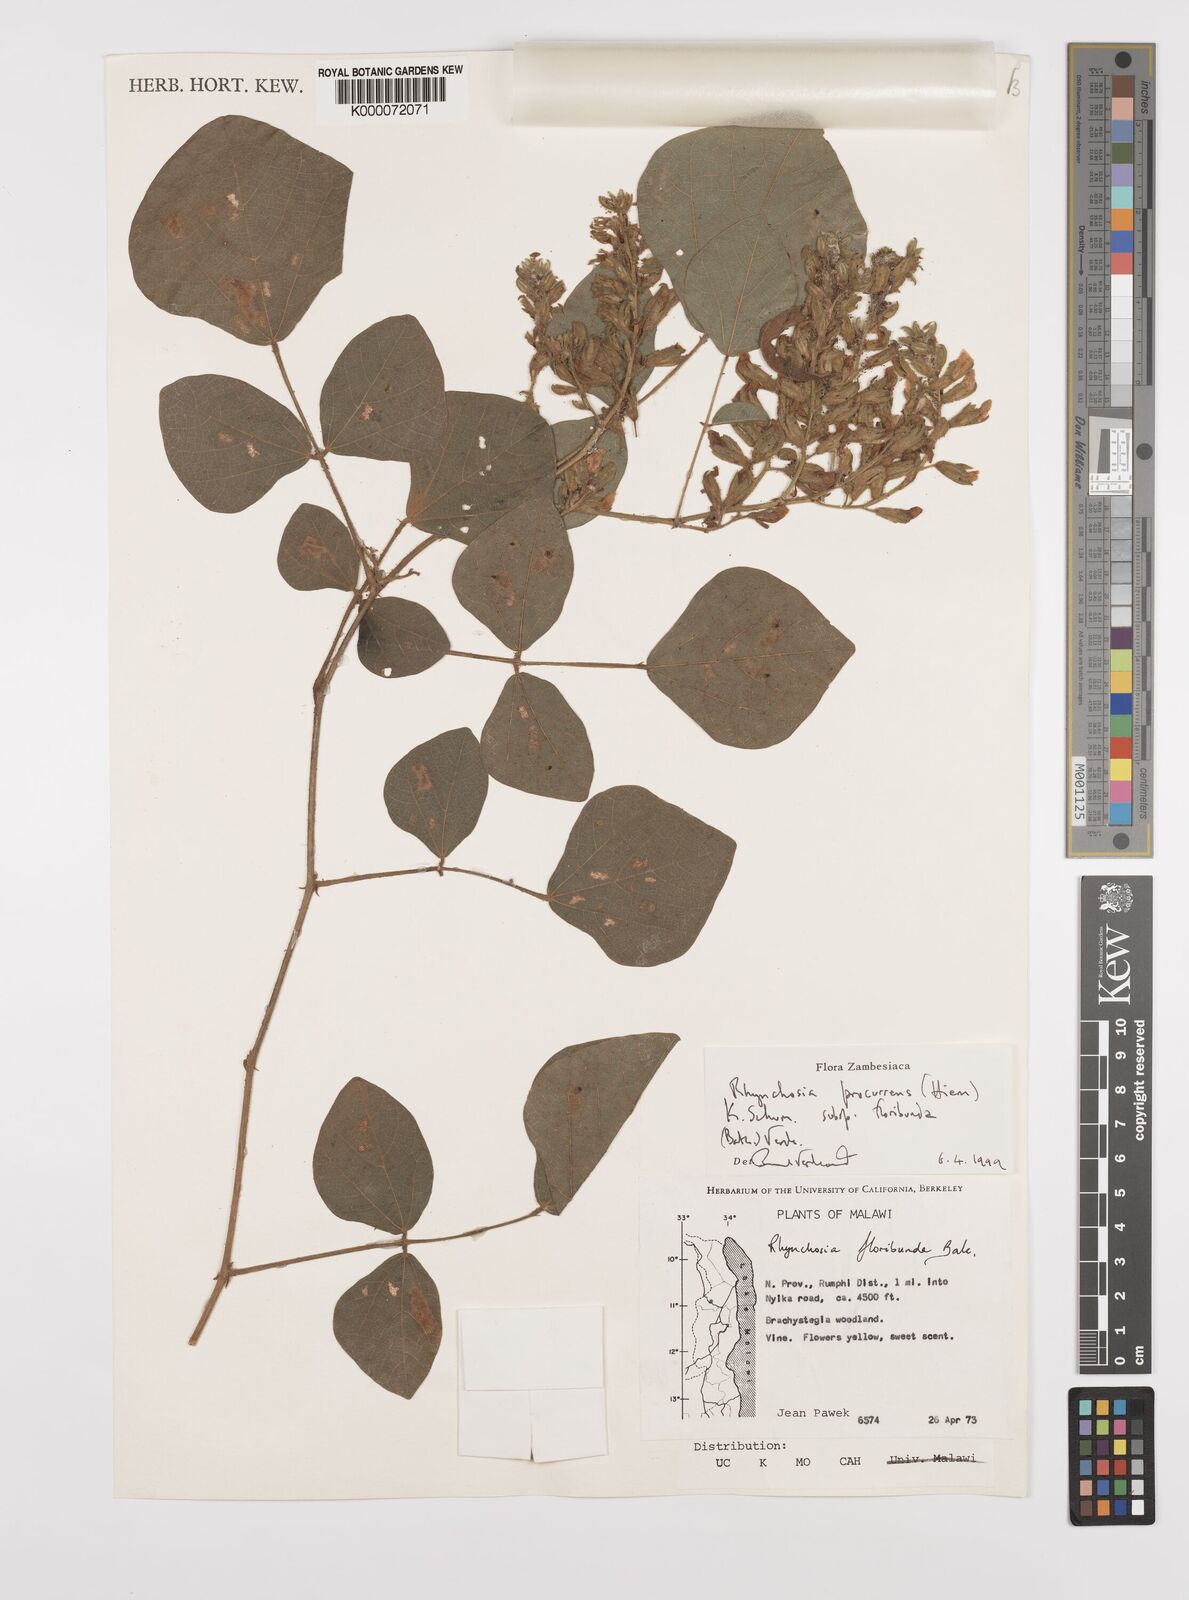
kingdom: Plantae
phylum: Tracheophyta
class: Magnoliopsida
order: Fabales
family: Fabaceae
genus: Rhynchosia
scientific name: Rhynchosia procurrens
